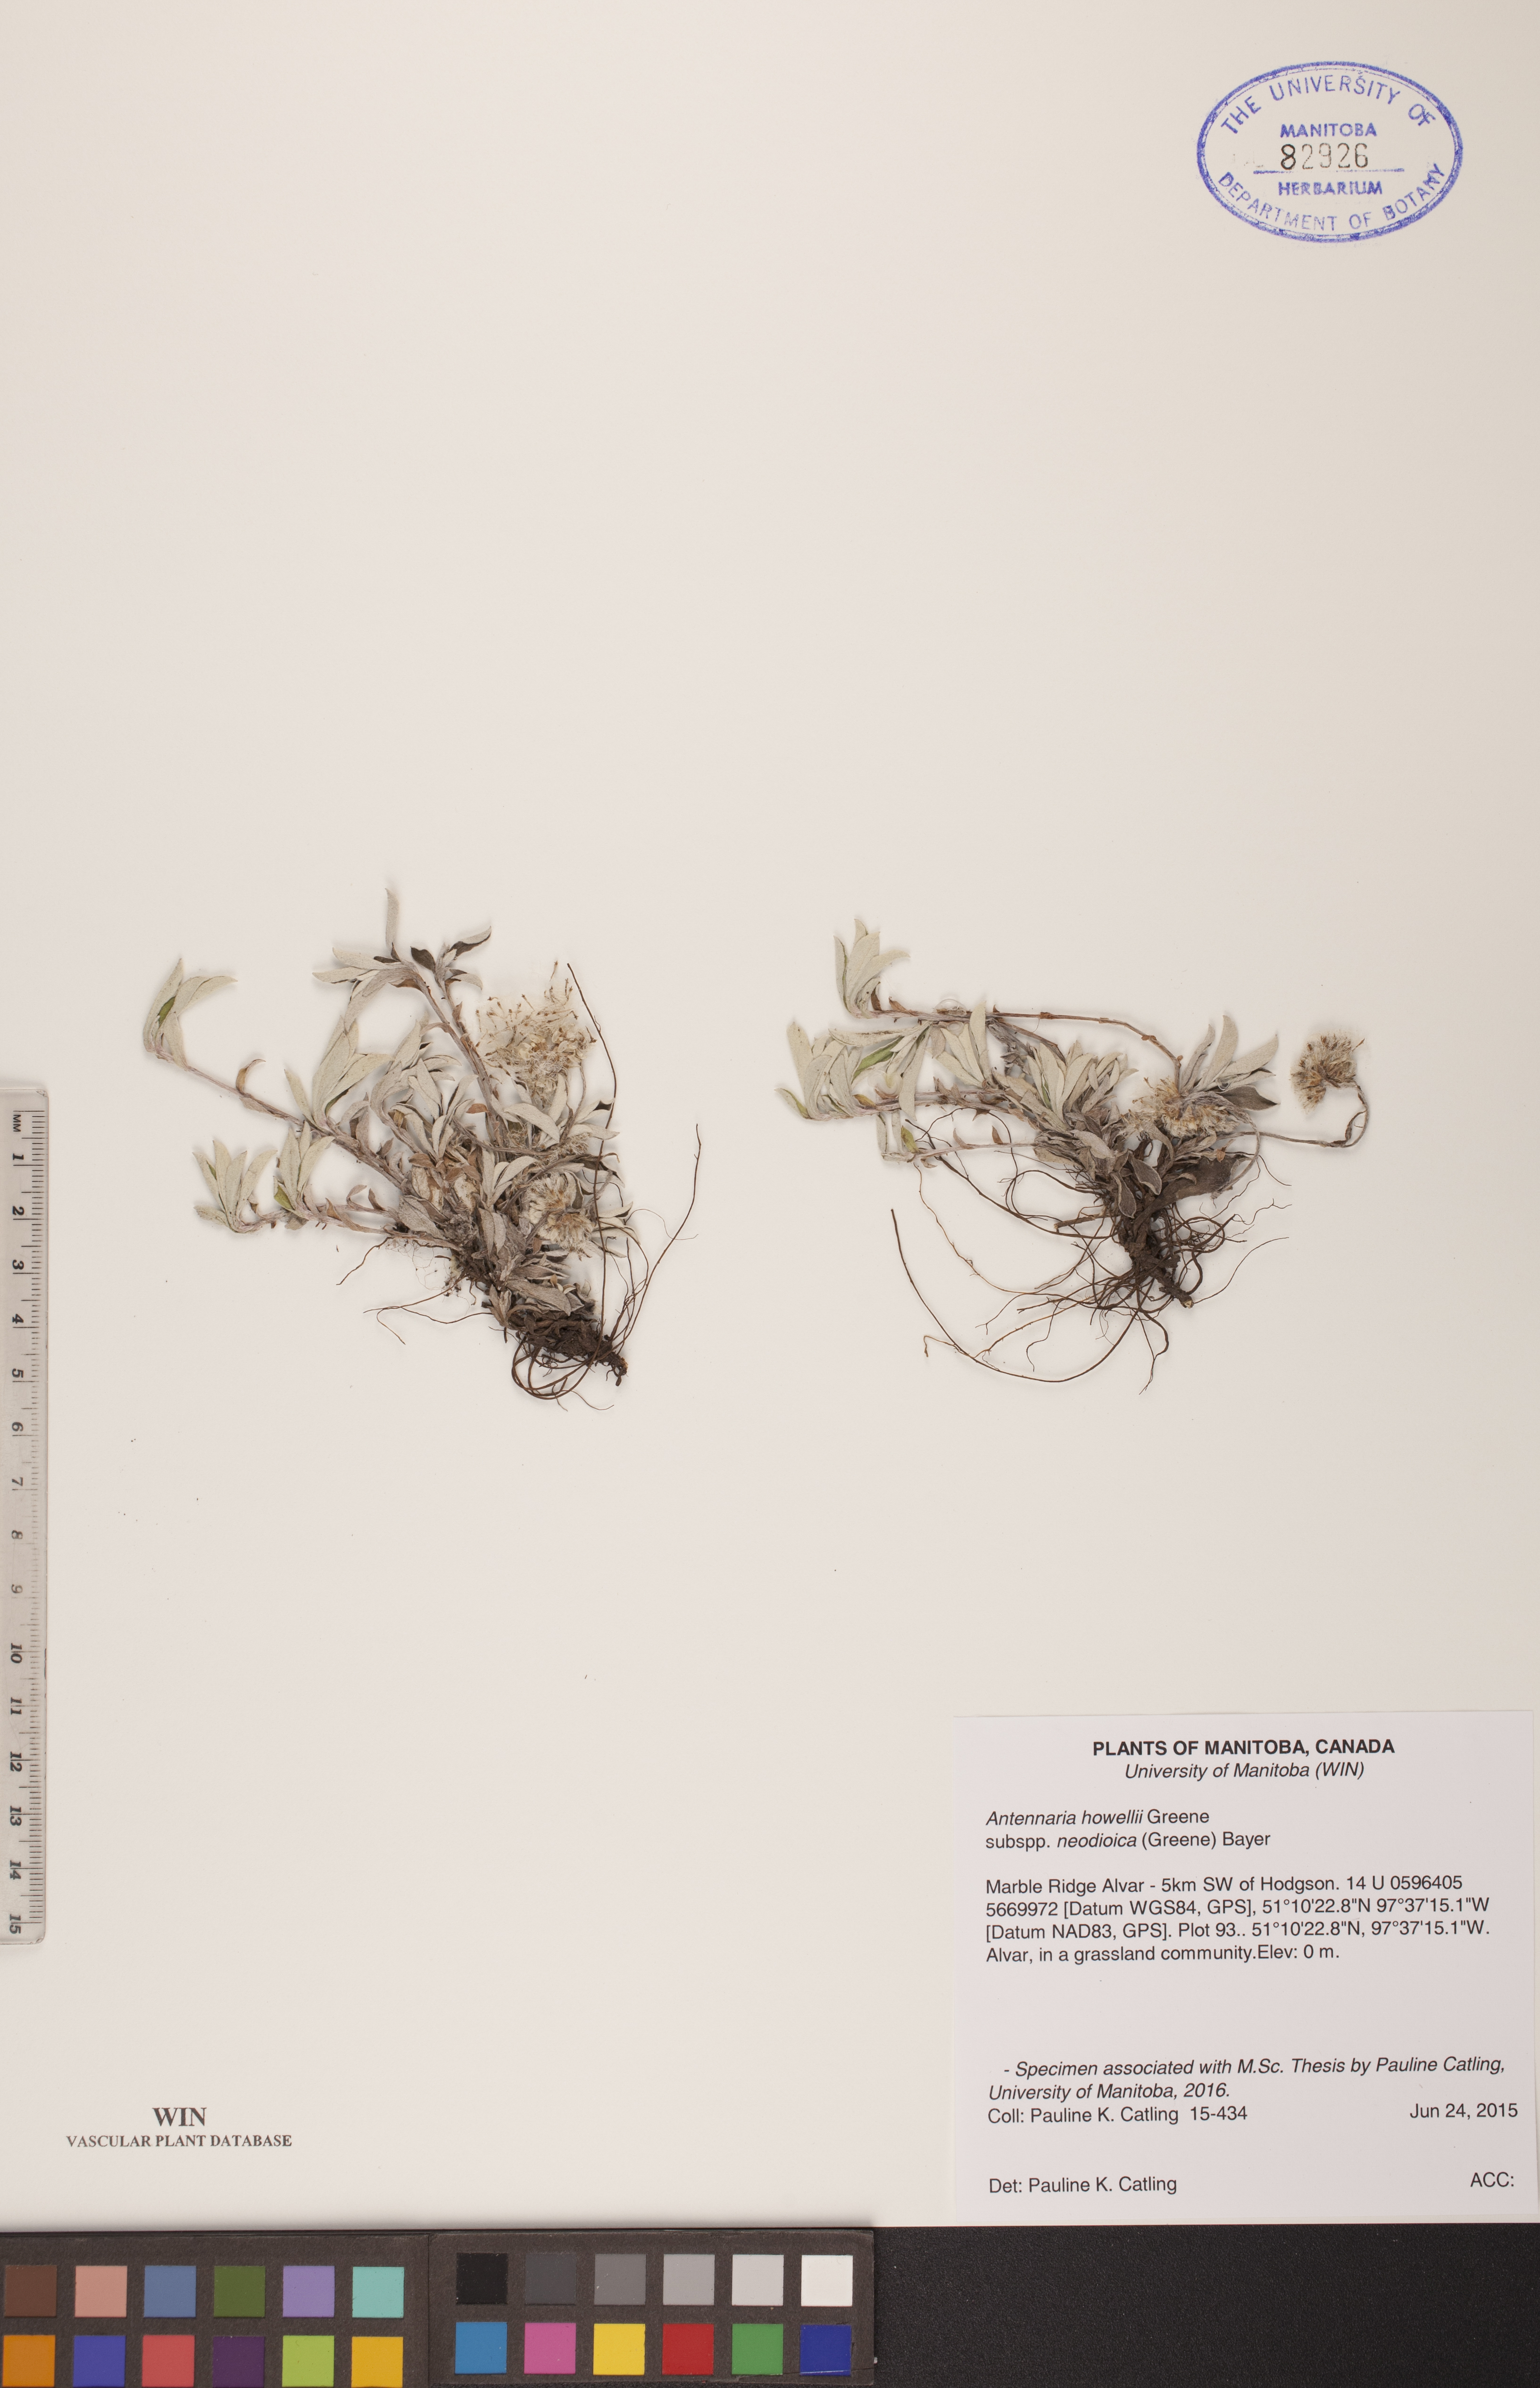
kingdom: Plantae
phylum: Tracheophyta
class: Magnoliopsida
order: Asterales
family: Asteraceae
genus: Antennaria
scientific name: Antennaria howellii
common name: Howell's pussytoes
